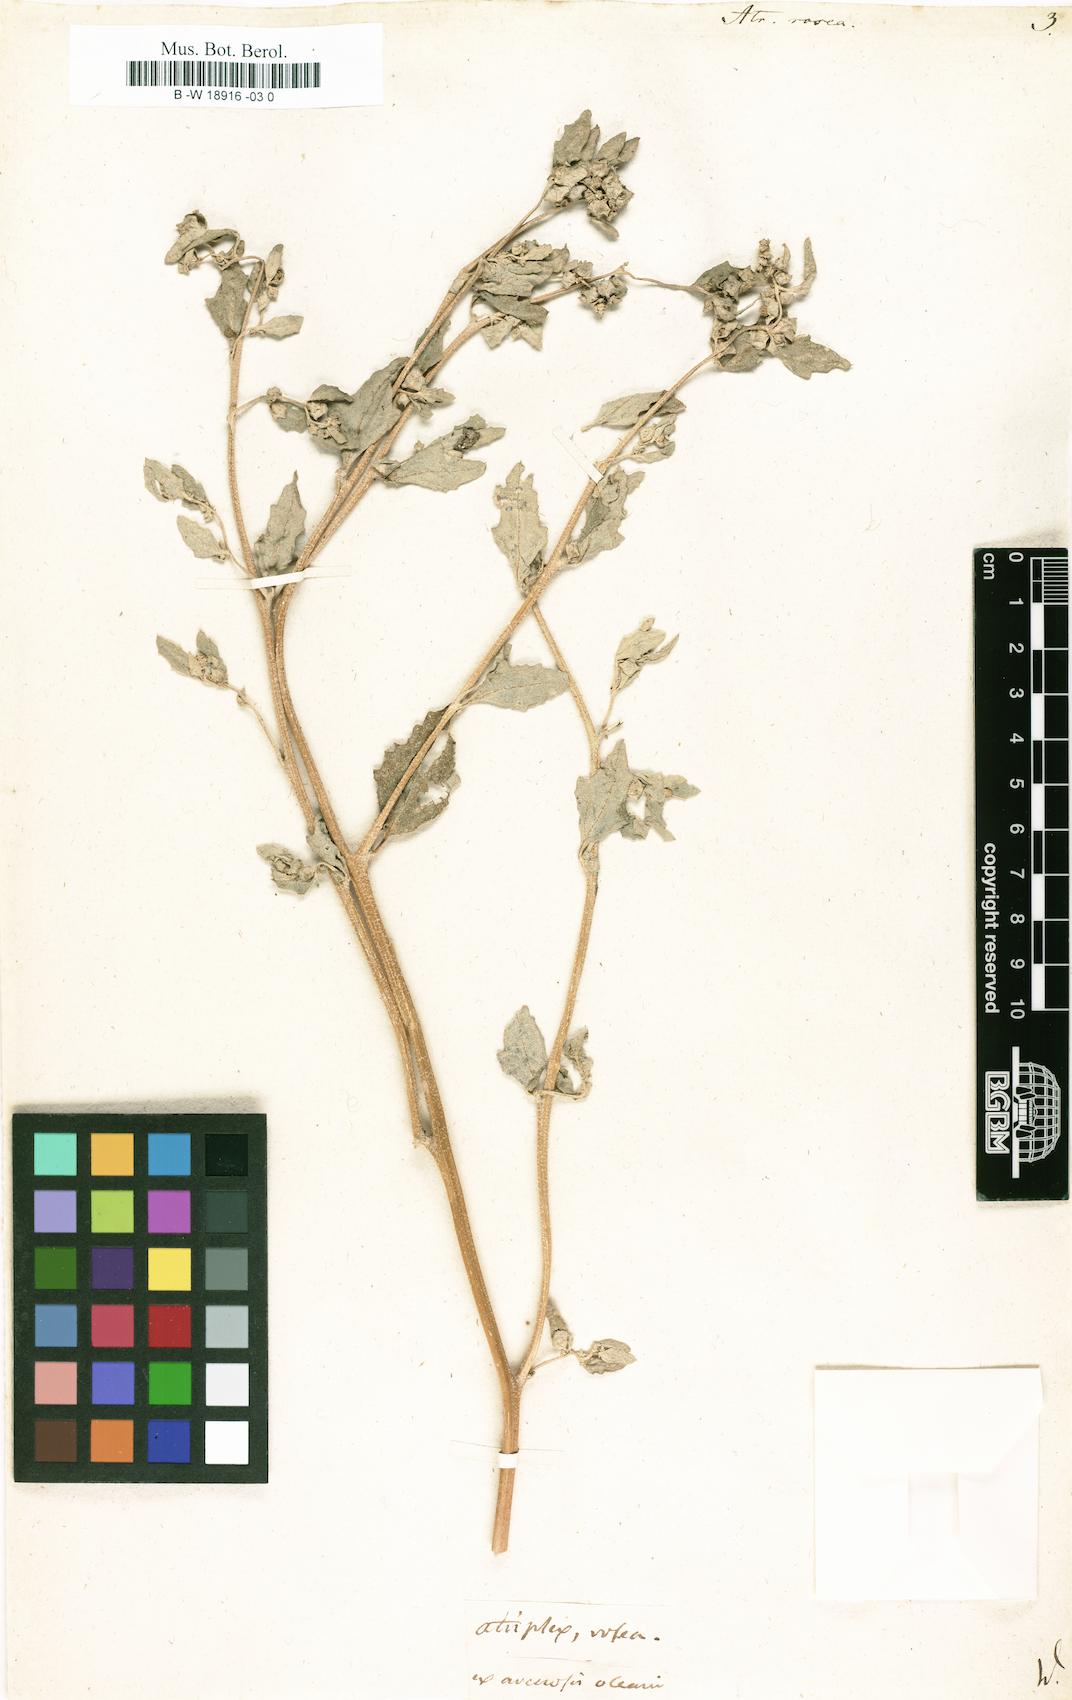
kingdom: Plantae
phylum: Tracheophyta
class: Magnoliopsida
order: Caryophyllales
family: Amaranthaceae
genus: Atriplex
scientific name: Atriplex rosea
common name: Tumbling saltweed
